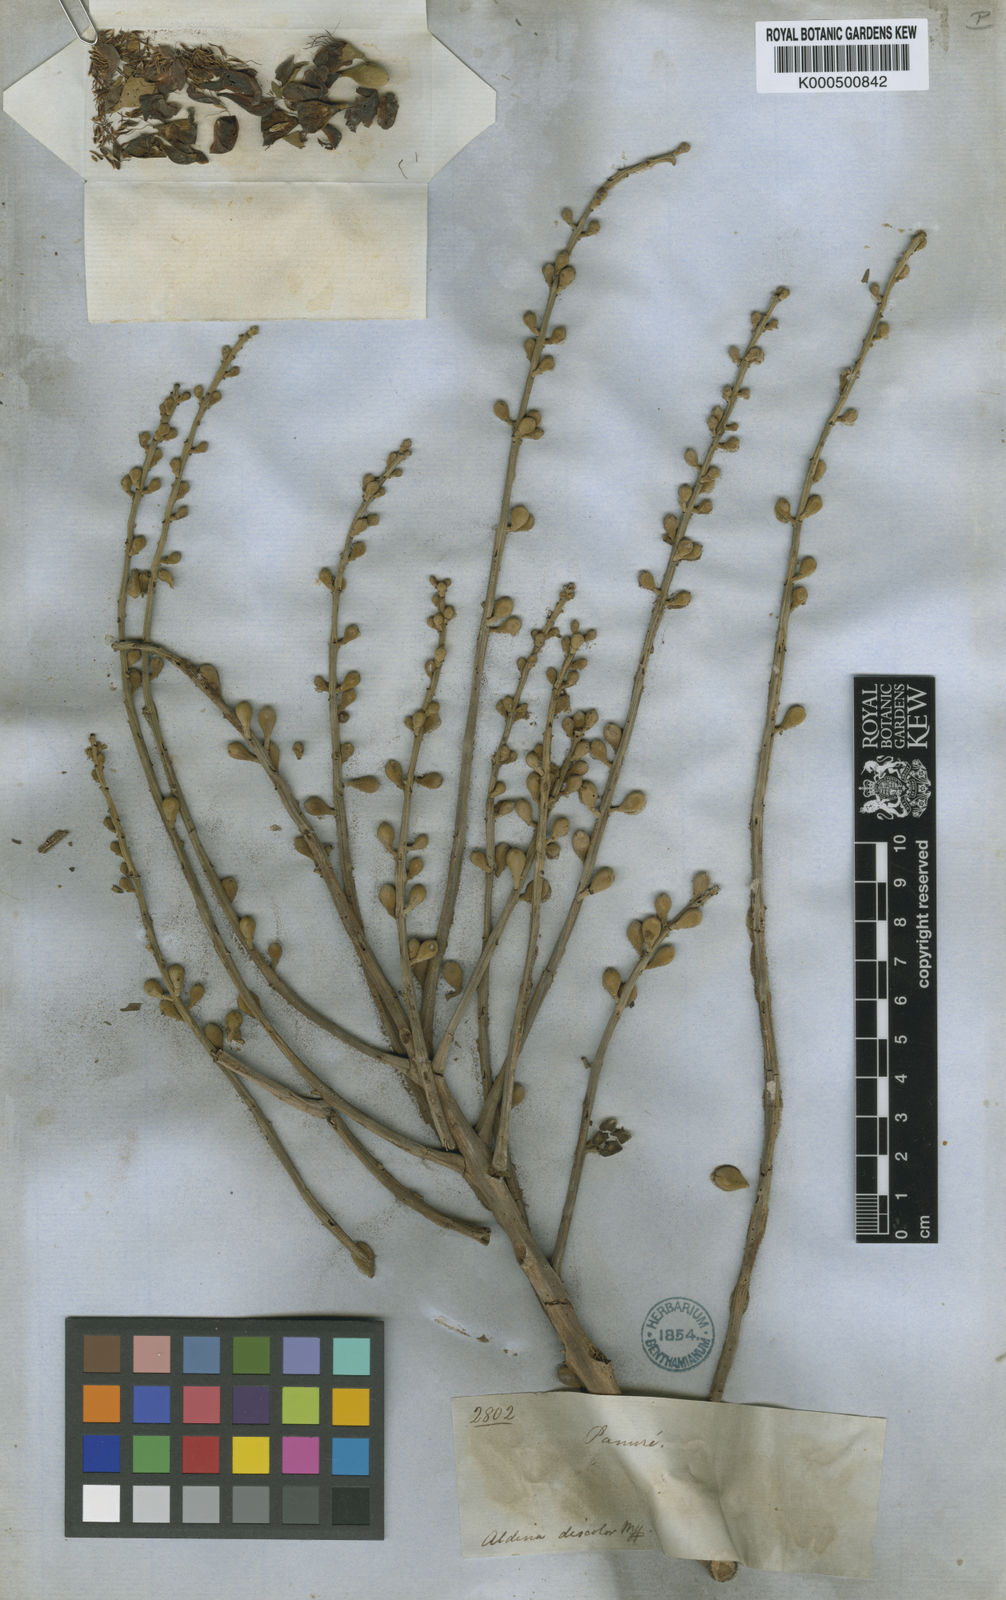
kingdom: Plantae
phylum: Tracheophyta
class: Magnoliopsida
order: Fabales
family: Fabaceae
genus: Aldina
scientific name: Aldina latifolia
